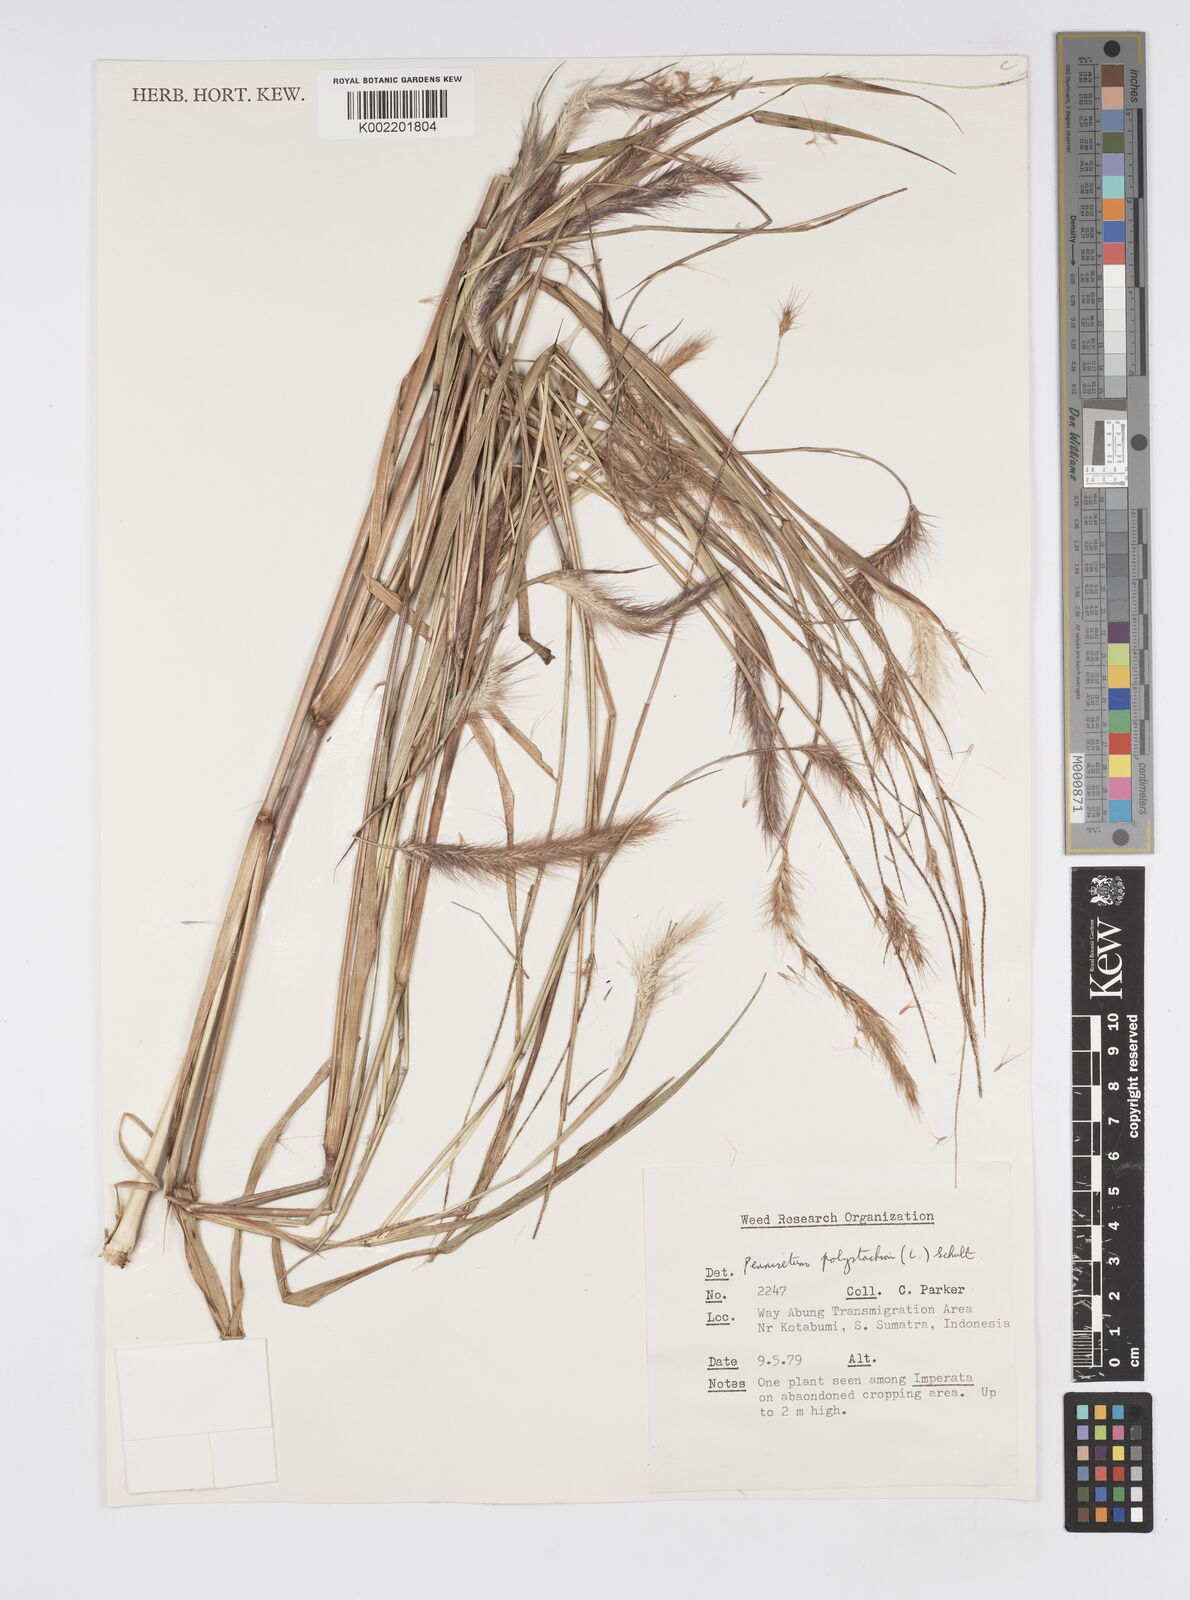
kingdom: Plantae
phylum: Tracheophyta
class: Liliopsida
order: Poales
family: Poaceae
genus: Setaria
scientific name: Setaria parviflora
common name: Knotroot bristle-grass
